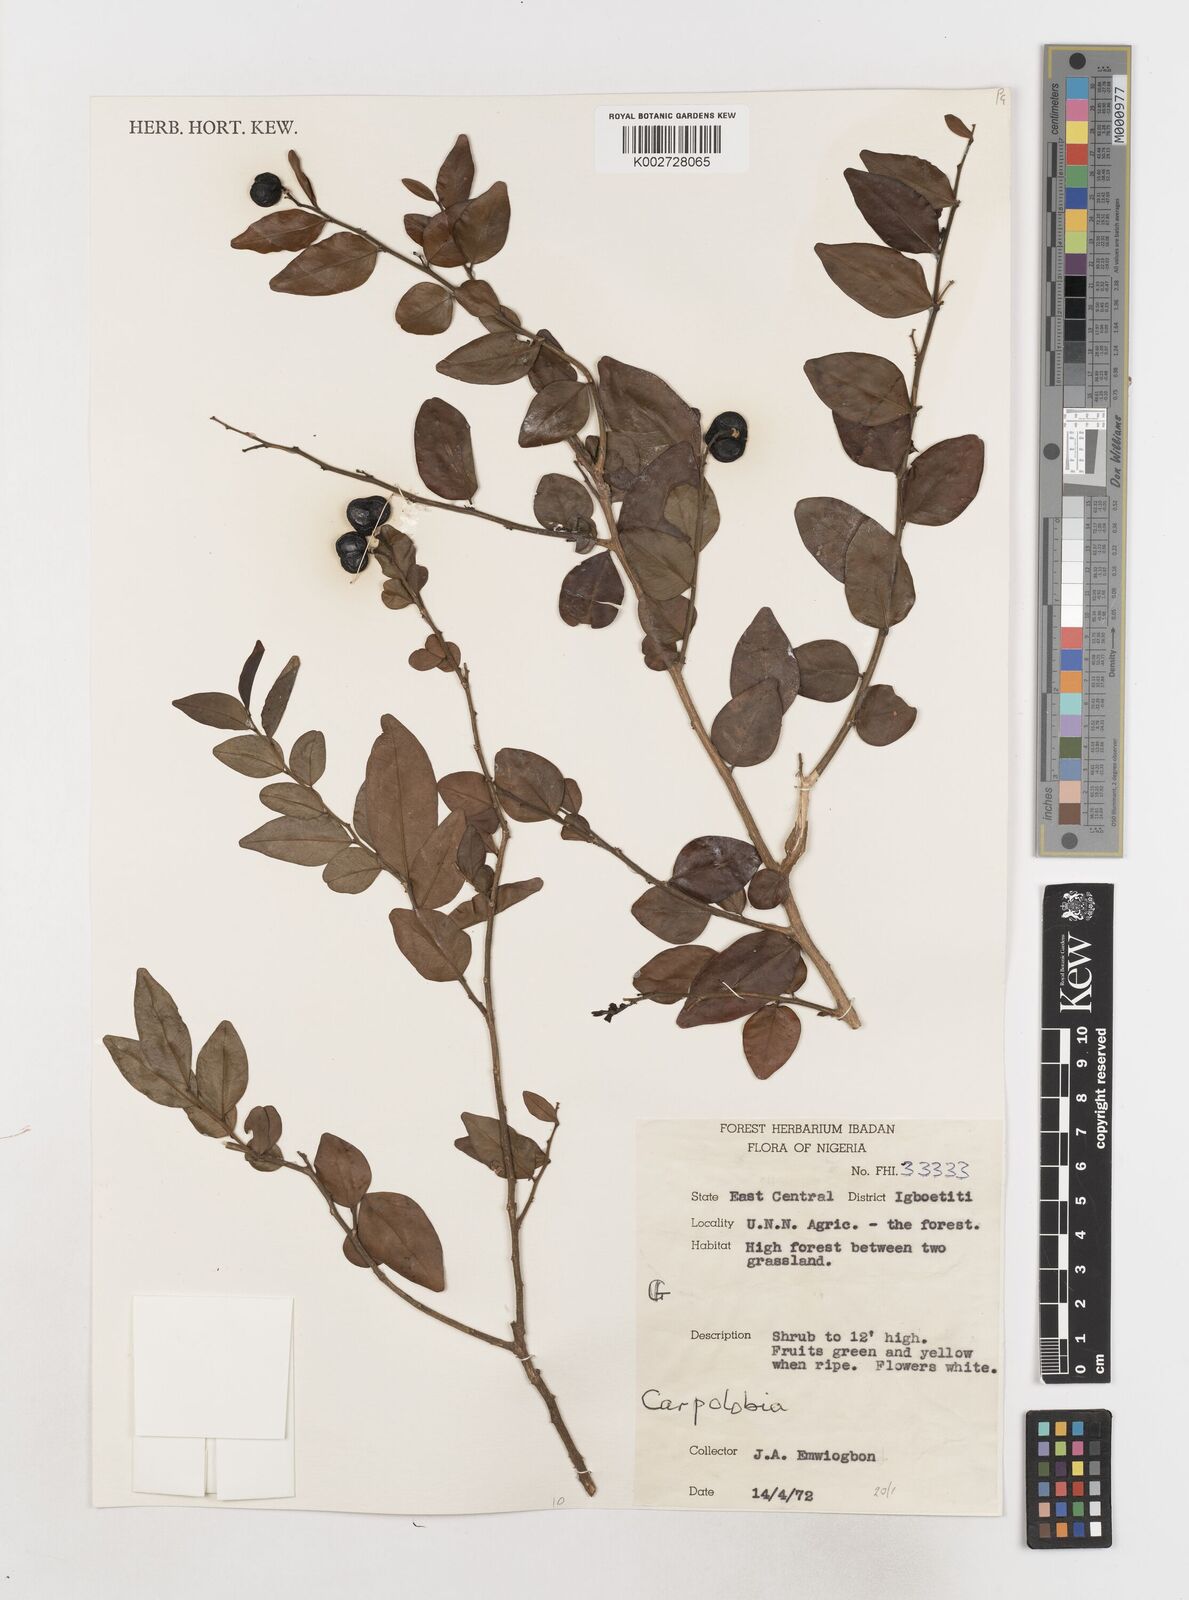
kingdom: Plantae
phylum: Tracheophyta
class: Magnoliopsida
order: Fabales
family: Polygalaceae
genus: Carpolobia
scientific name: Carpolobia
